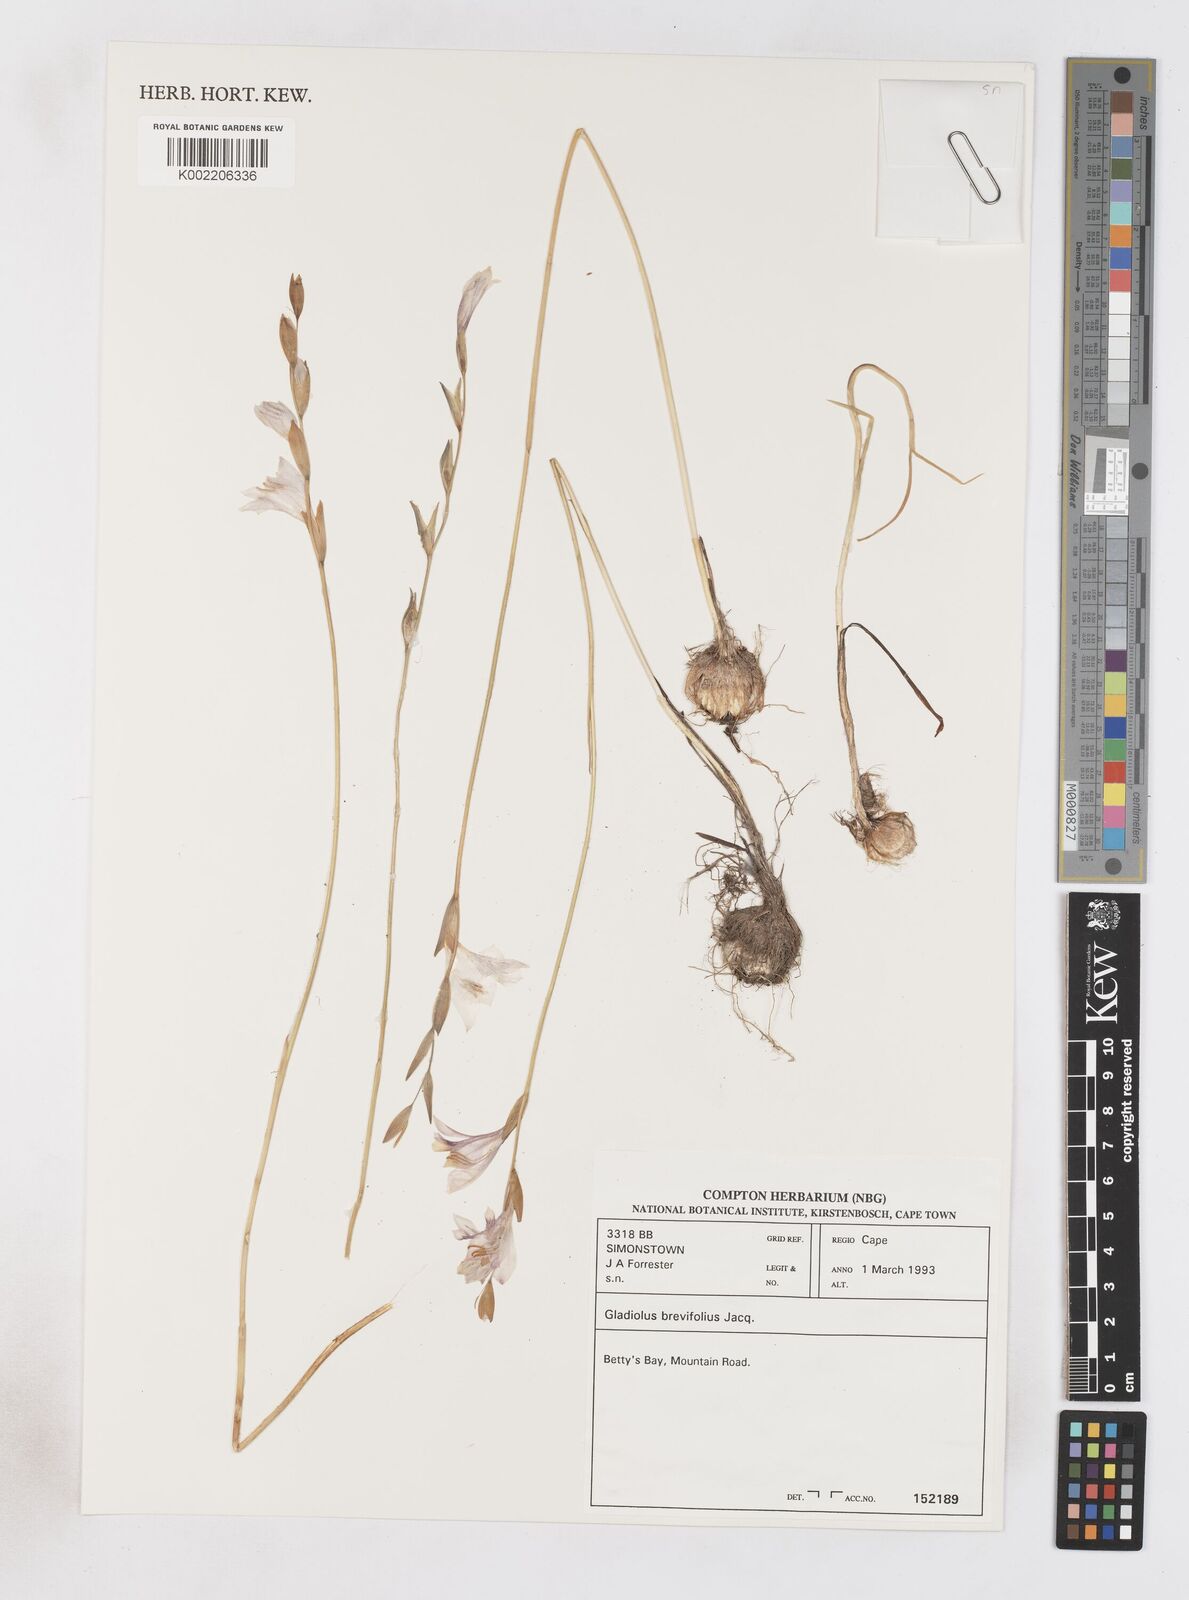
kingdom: Plantae
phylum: Tracheophyta
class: Liliopsida
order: Asparagales
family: Iridaceae
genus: Gladiolus
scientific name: Gladiolus brevifolius
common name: March pypie
